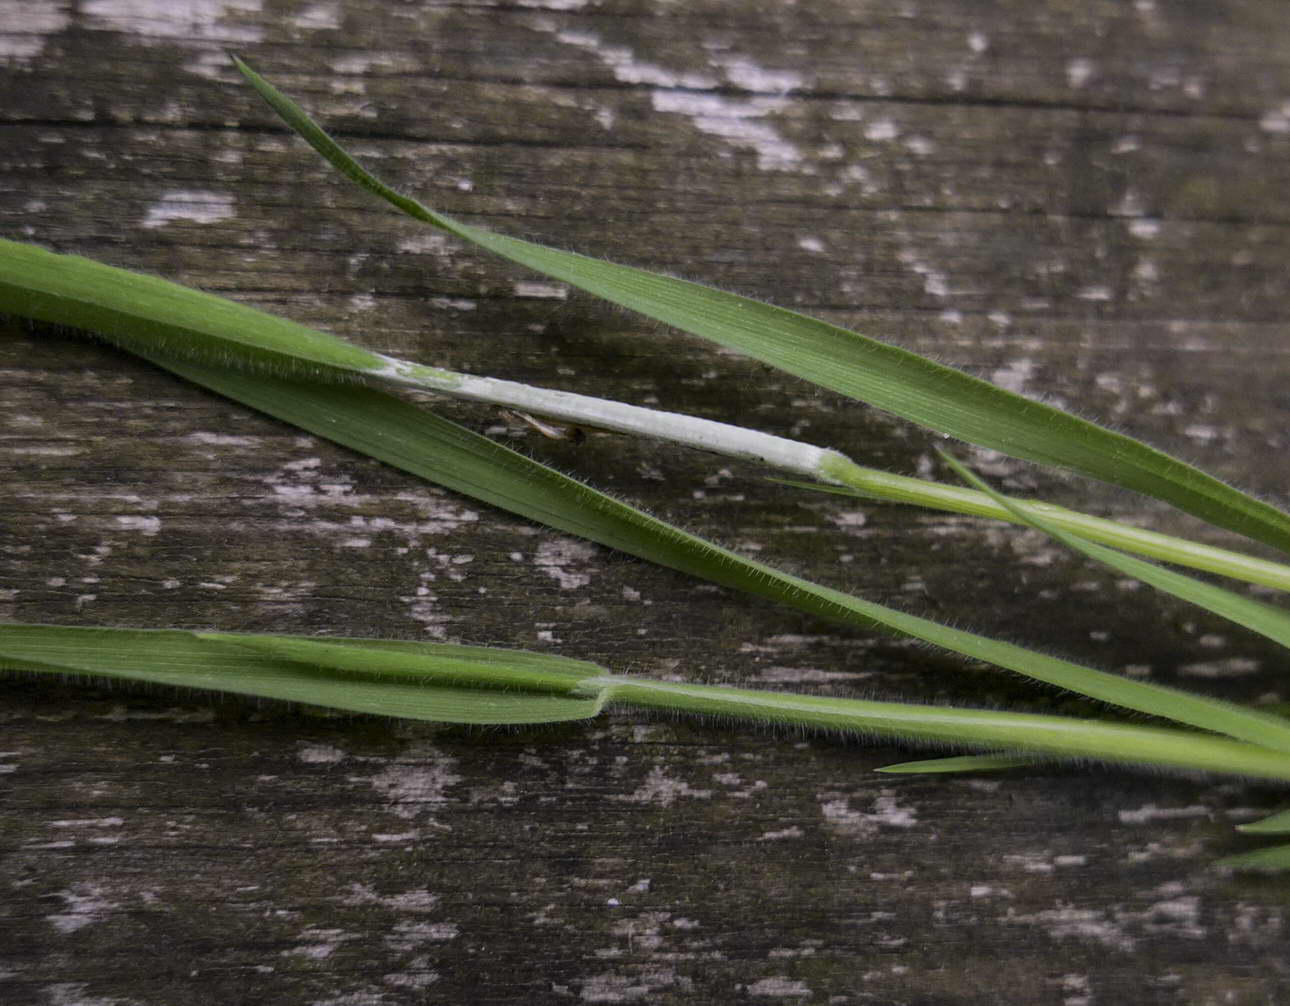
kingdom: Fungi
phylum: Ascomycota
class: Sordariomycetes
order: Hypocreales
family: Clavicipitaceae
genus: Epichloe
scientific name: Epichloe clarkii
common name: fløjlsgræs-kernerør
